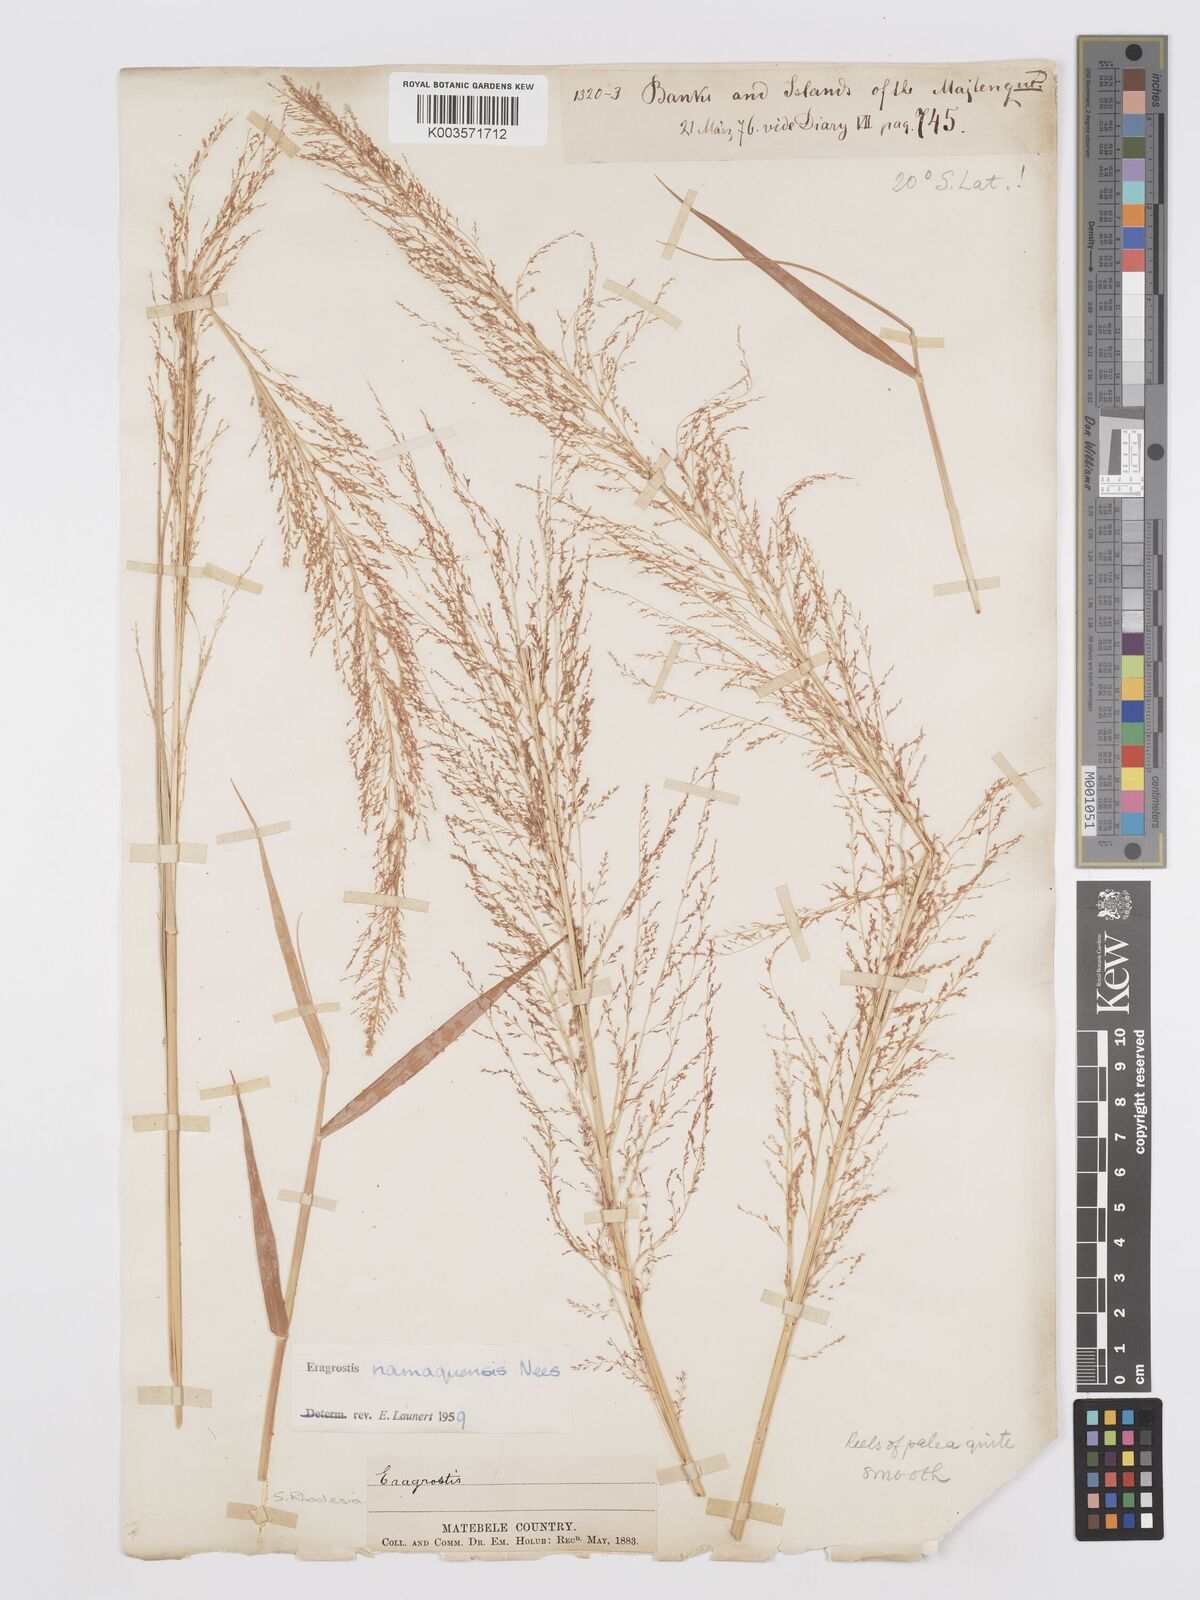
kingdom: Plantae
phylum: Tracheophyta
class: Liliopsida
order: Poales
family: Poaceae
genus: Eragrostis
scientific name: Eragrostis japonica
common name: Pond lovegrass
